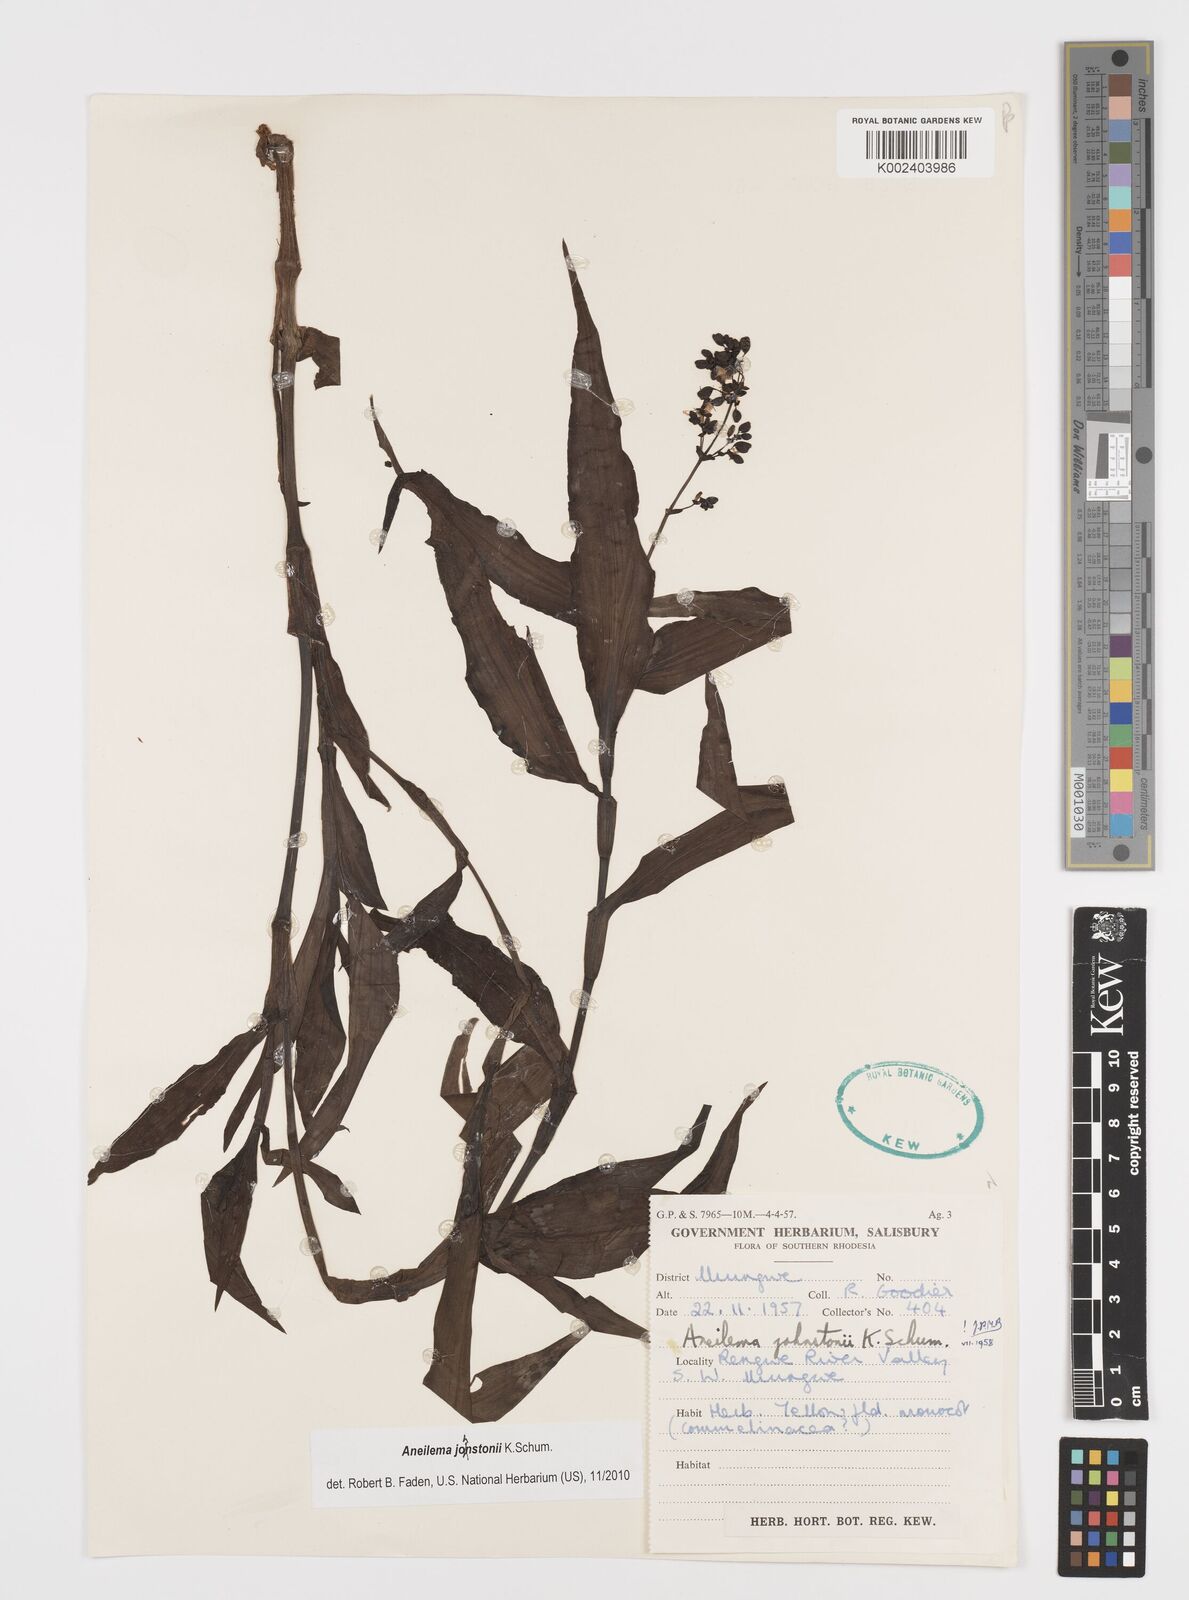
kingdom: Plantae
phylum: Tracheophyta
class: Liliopsida
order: Commelinales
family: Commelinaceae
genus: Aneilema
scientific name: Aneilema johnstonii
